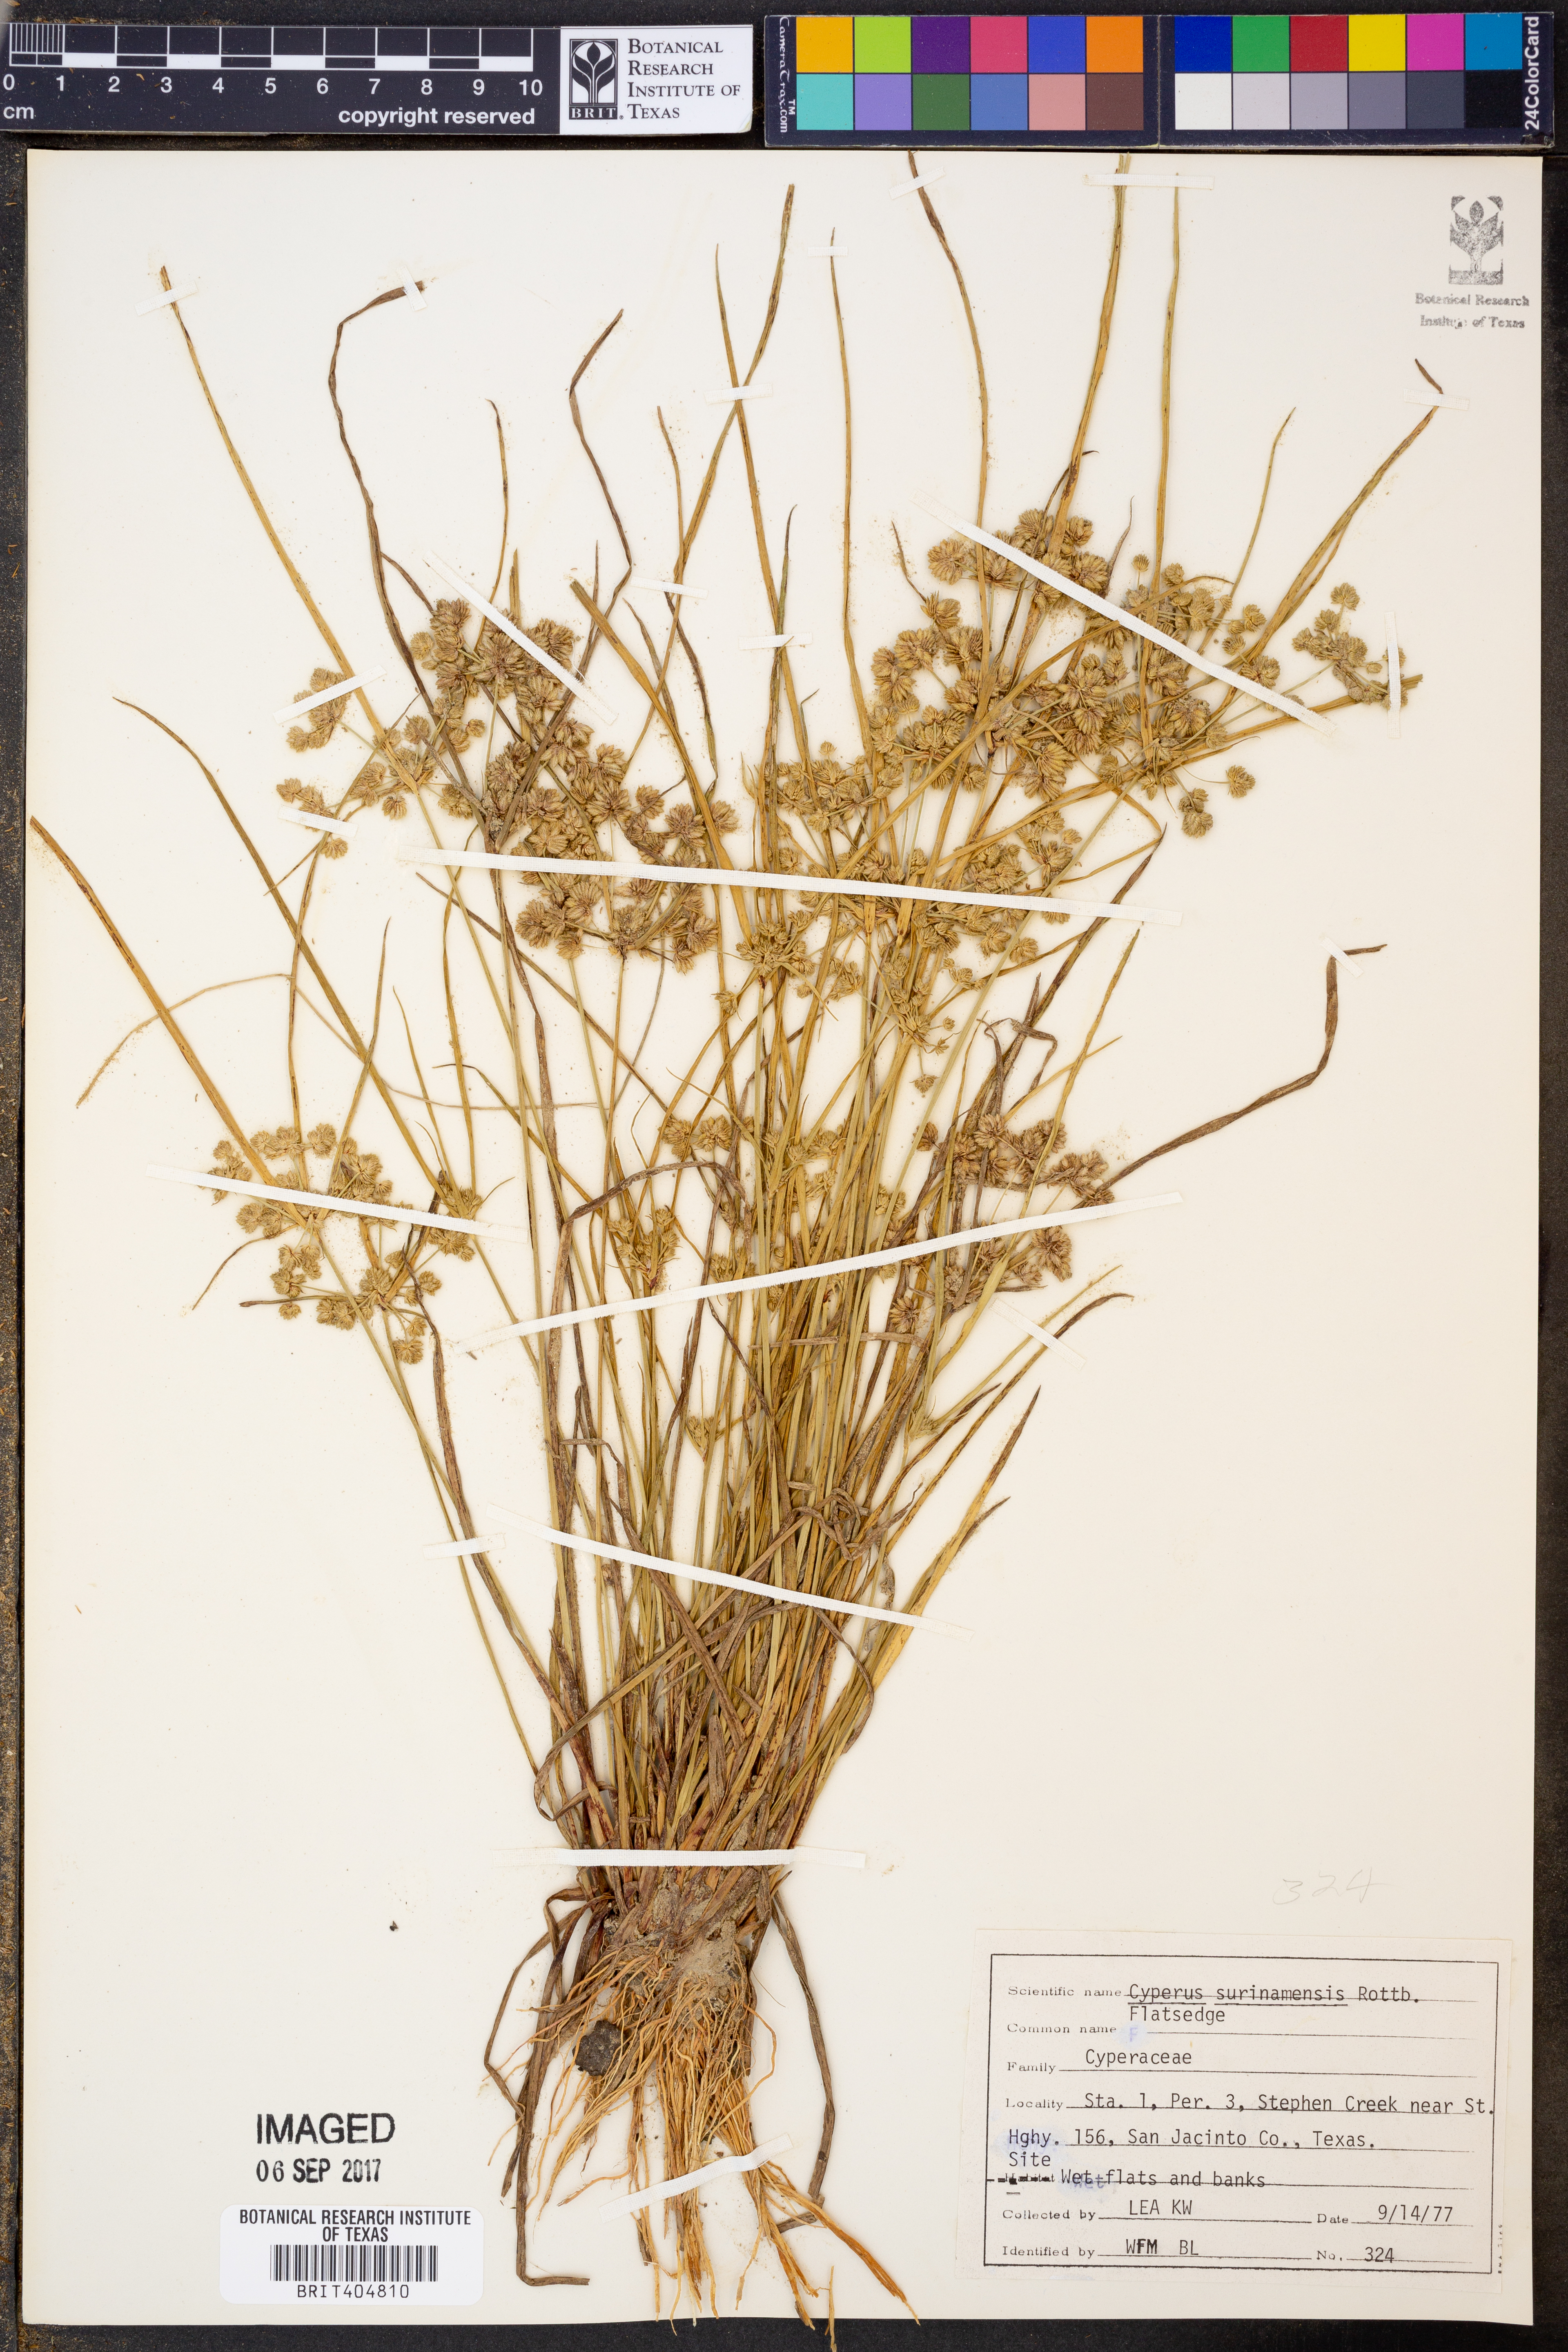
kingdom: Plantae
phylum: Tracheophyta
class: Liliopsida
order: Poales
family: Cyperaceae
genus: Cyperus
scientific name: Cyperus surinamensis
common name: Tropical flat sedge
